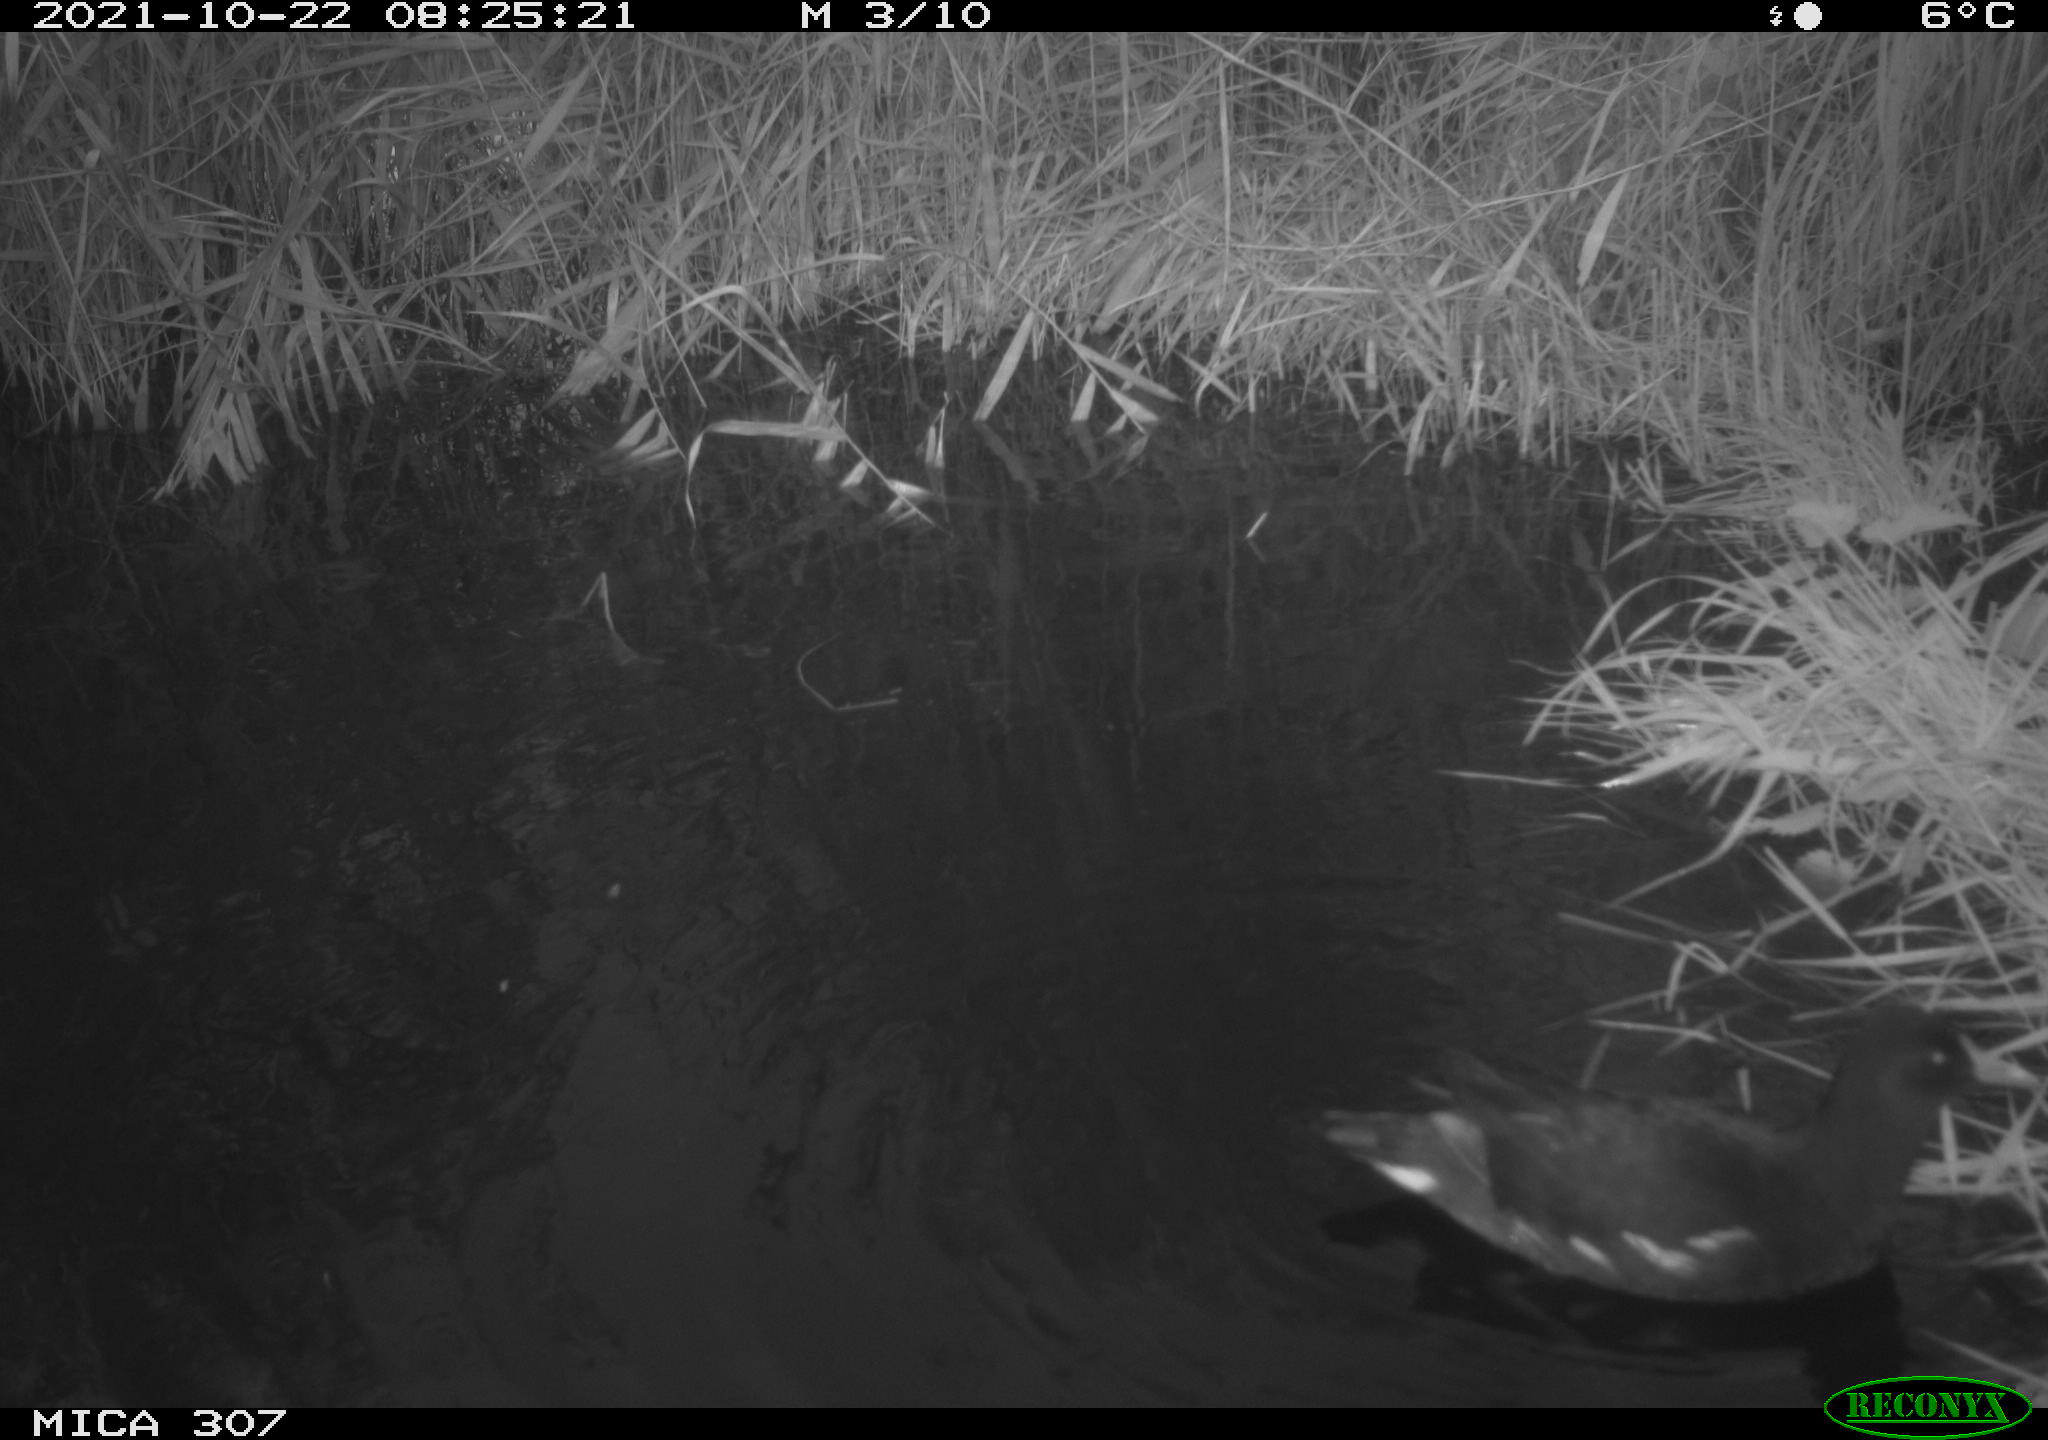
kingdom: Animalia
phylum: Chordata
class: Aves
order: Gruiformes
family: Rallidae
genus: Gallinula
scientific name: Gallinula chloropus
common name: Common moorhen
